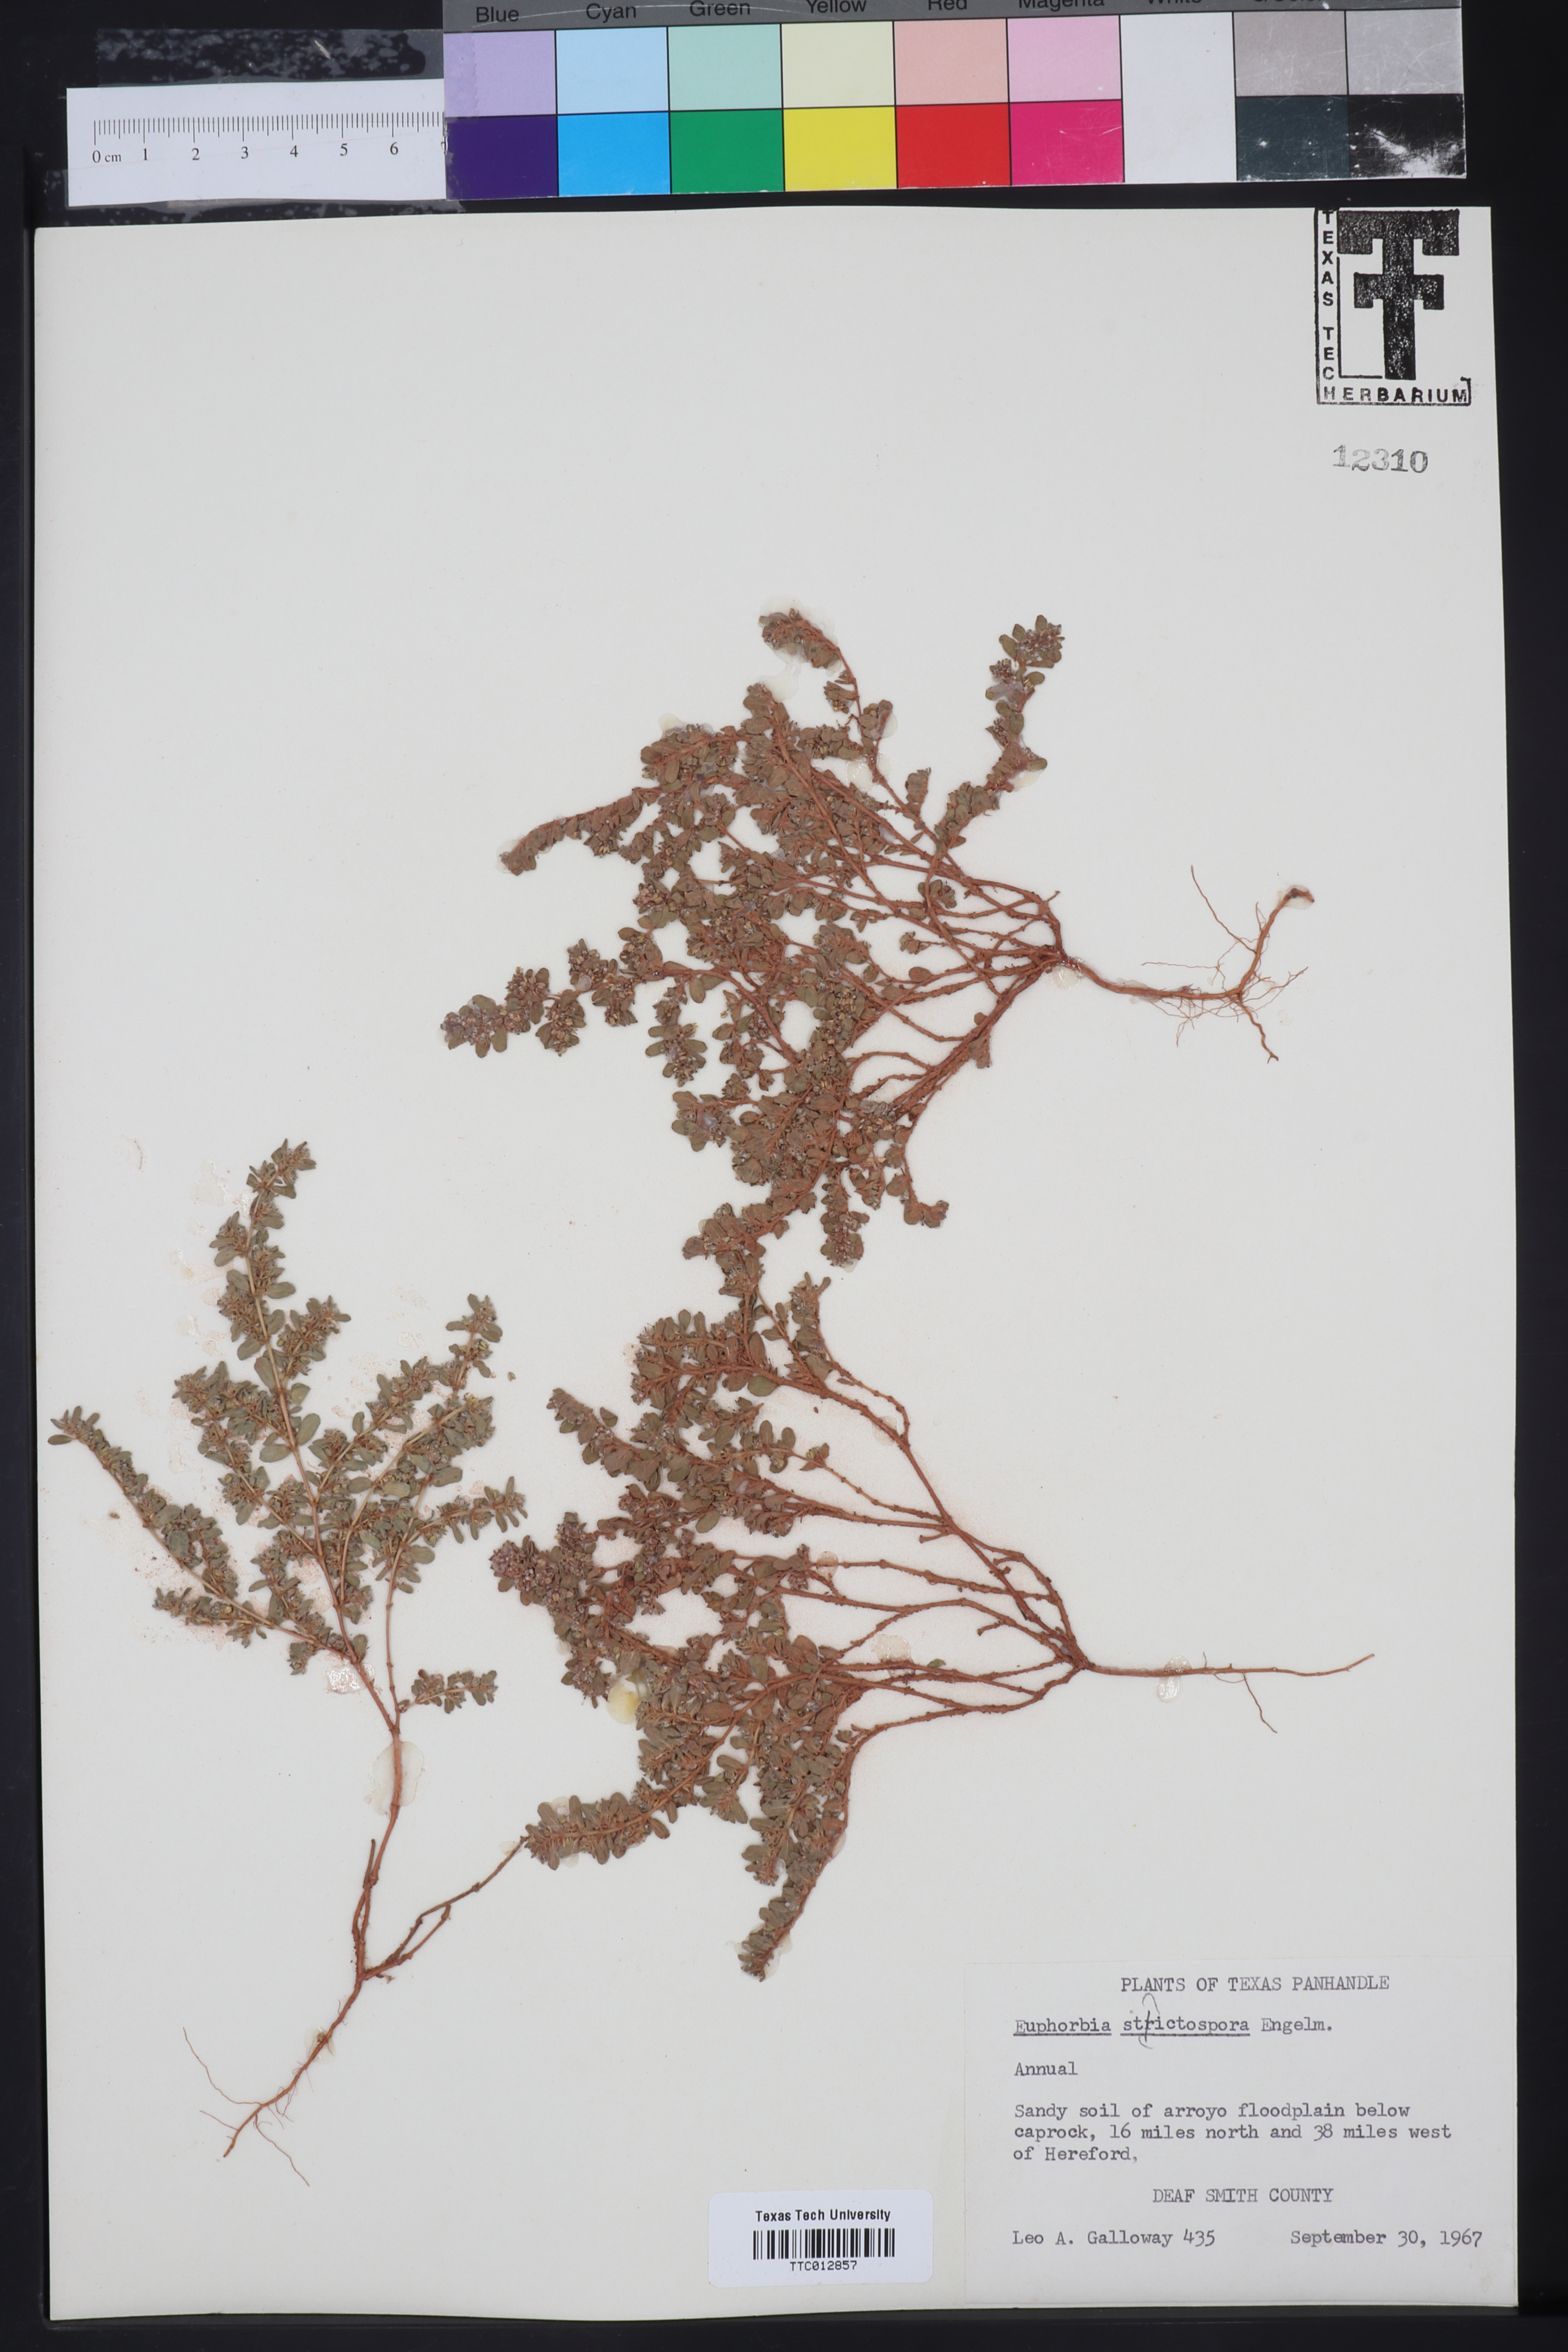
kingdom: Plantae
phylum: Tracheophyta
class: Magnoliopsida
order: Malpighiales
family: Euphorbiaceae
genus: Euphorbia
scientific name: Euphorbia stictospora
